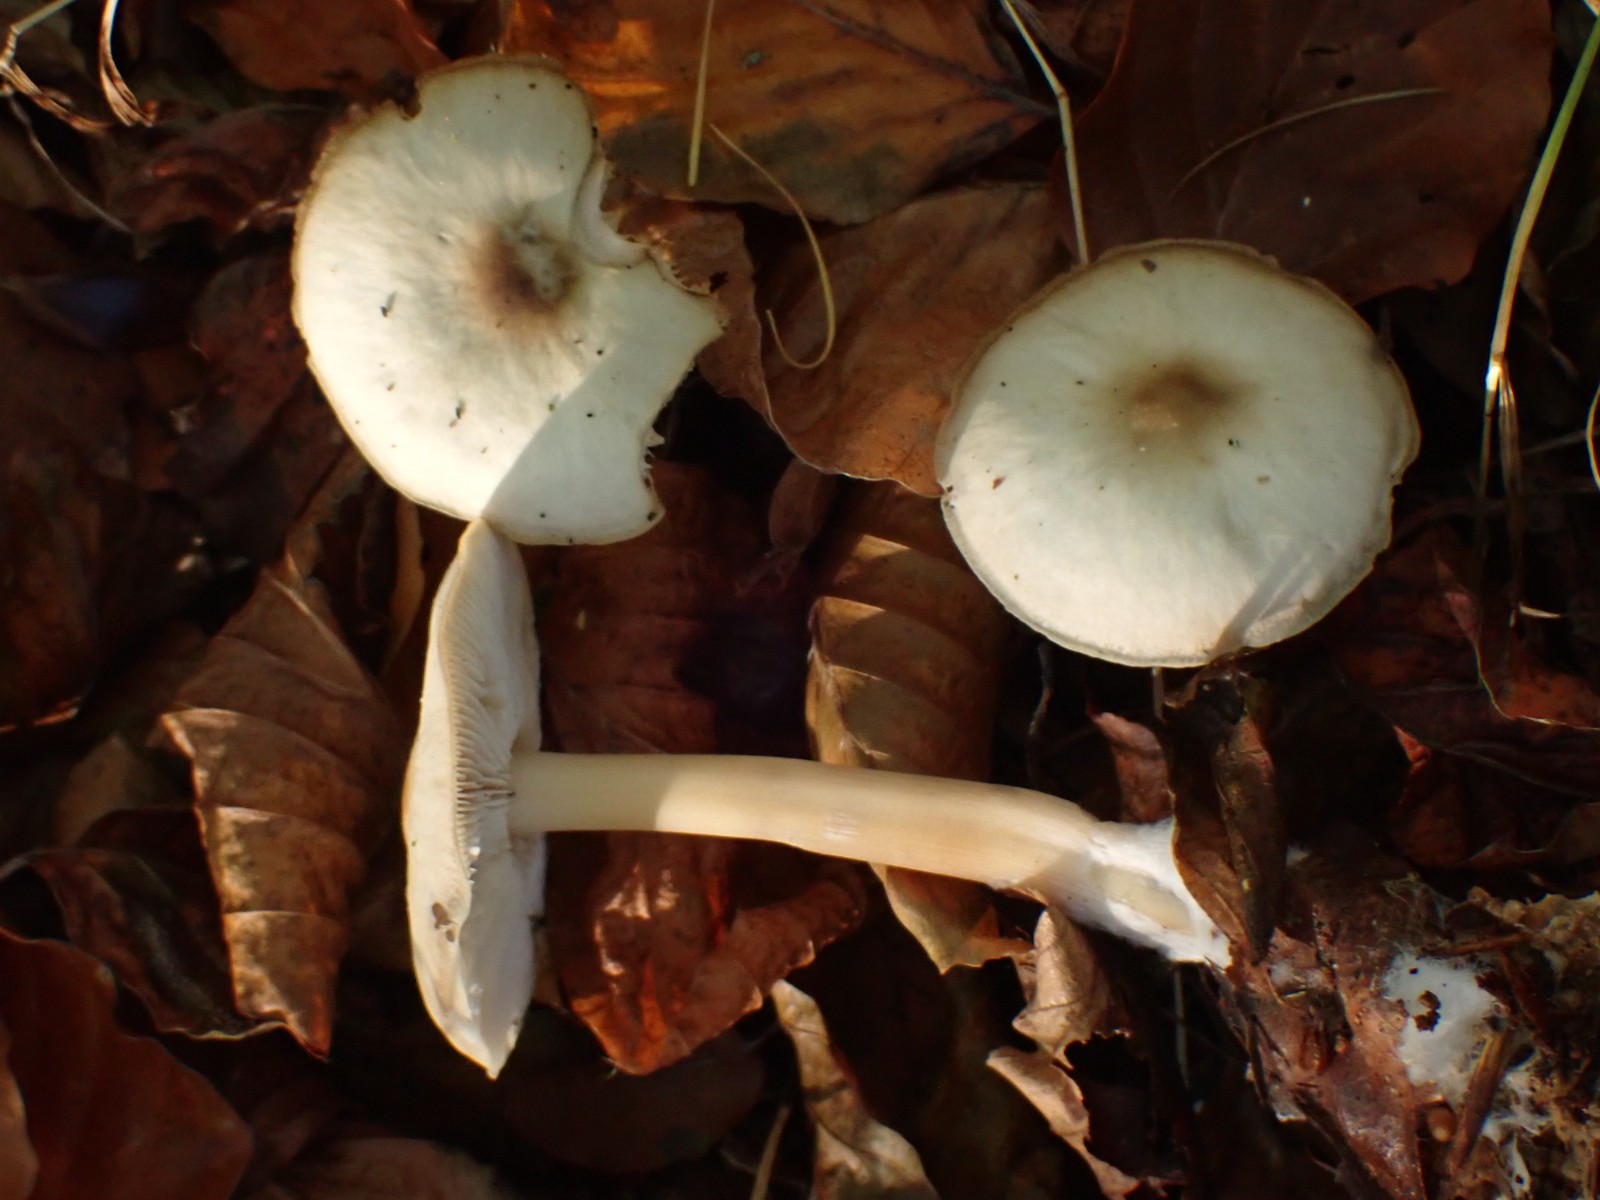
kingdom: Fungi
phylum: Basidiomycota
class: Agaricomycetes
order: Agaricales
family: Omphalotaceae
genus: Rhodocollybia
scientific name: Rhodocollybia asema
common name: horngrå fladhat
